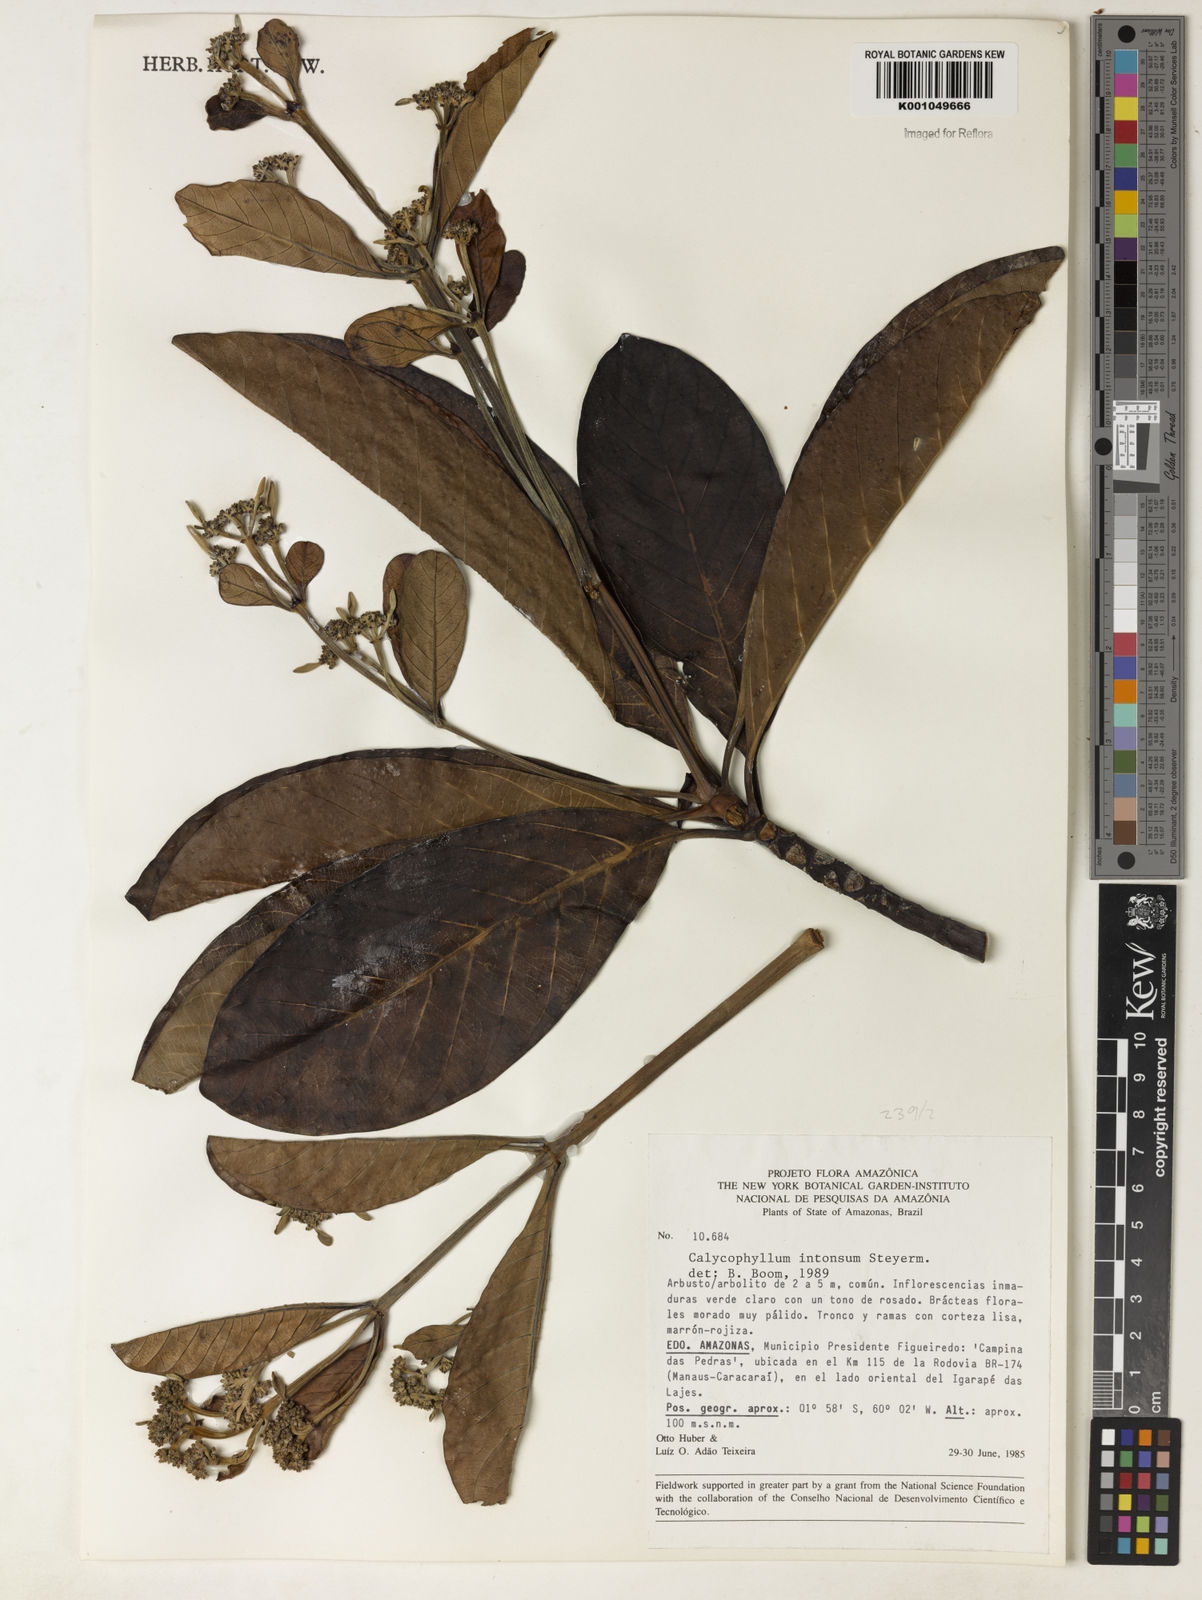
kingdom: Plantae
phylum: Tracheophyta
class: Magnoliopsida
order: Gentianales
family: Rubiaceae
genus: Calycophyllum
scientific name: Calycophyllum intonsum
